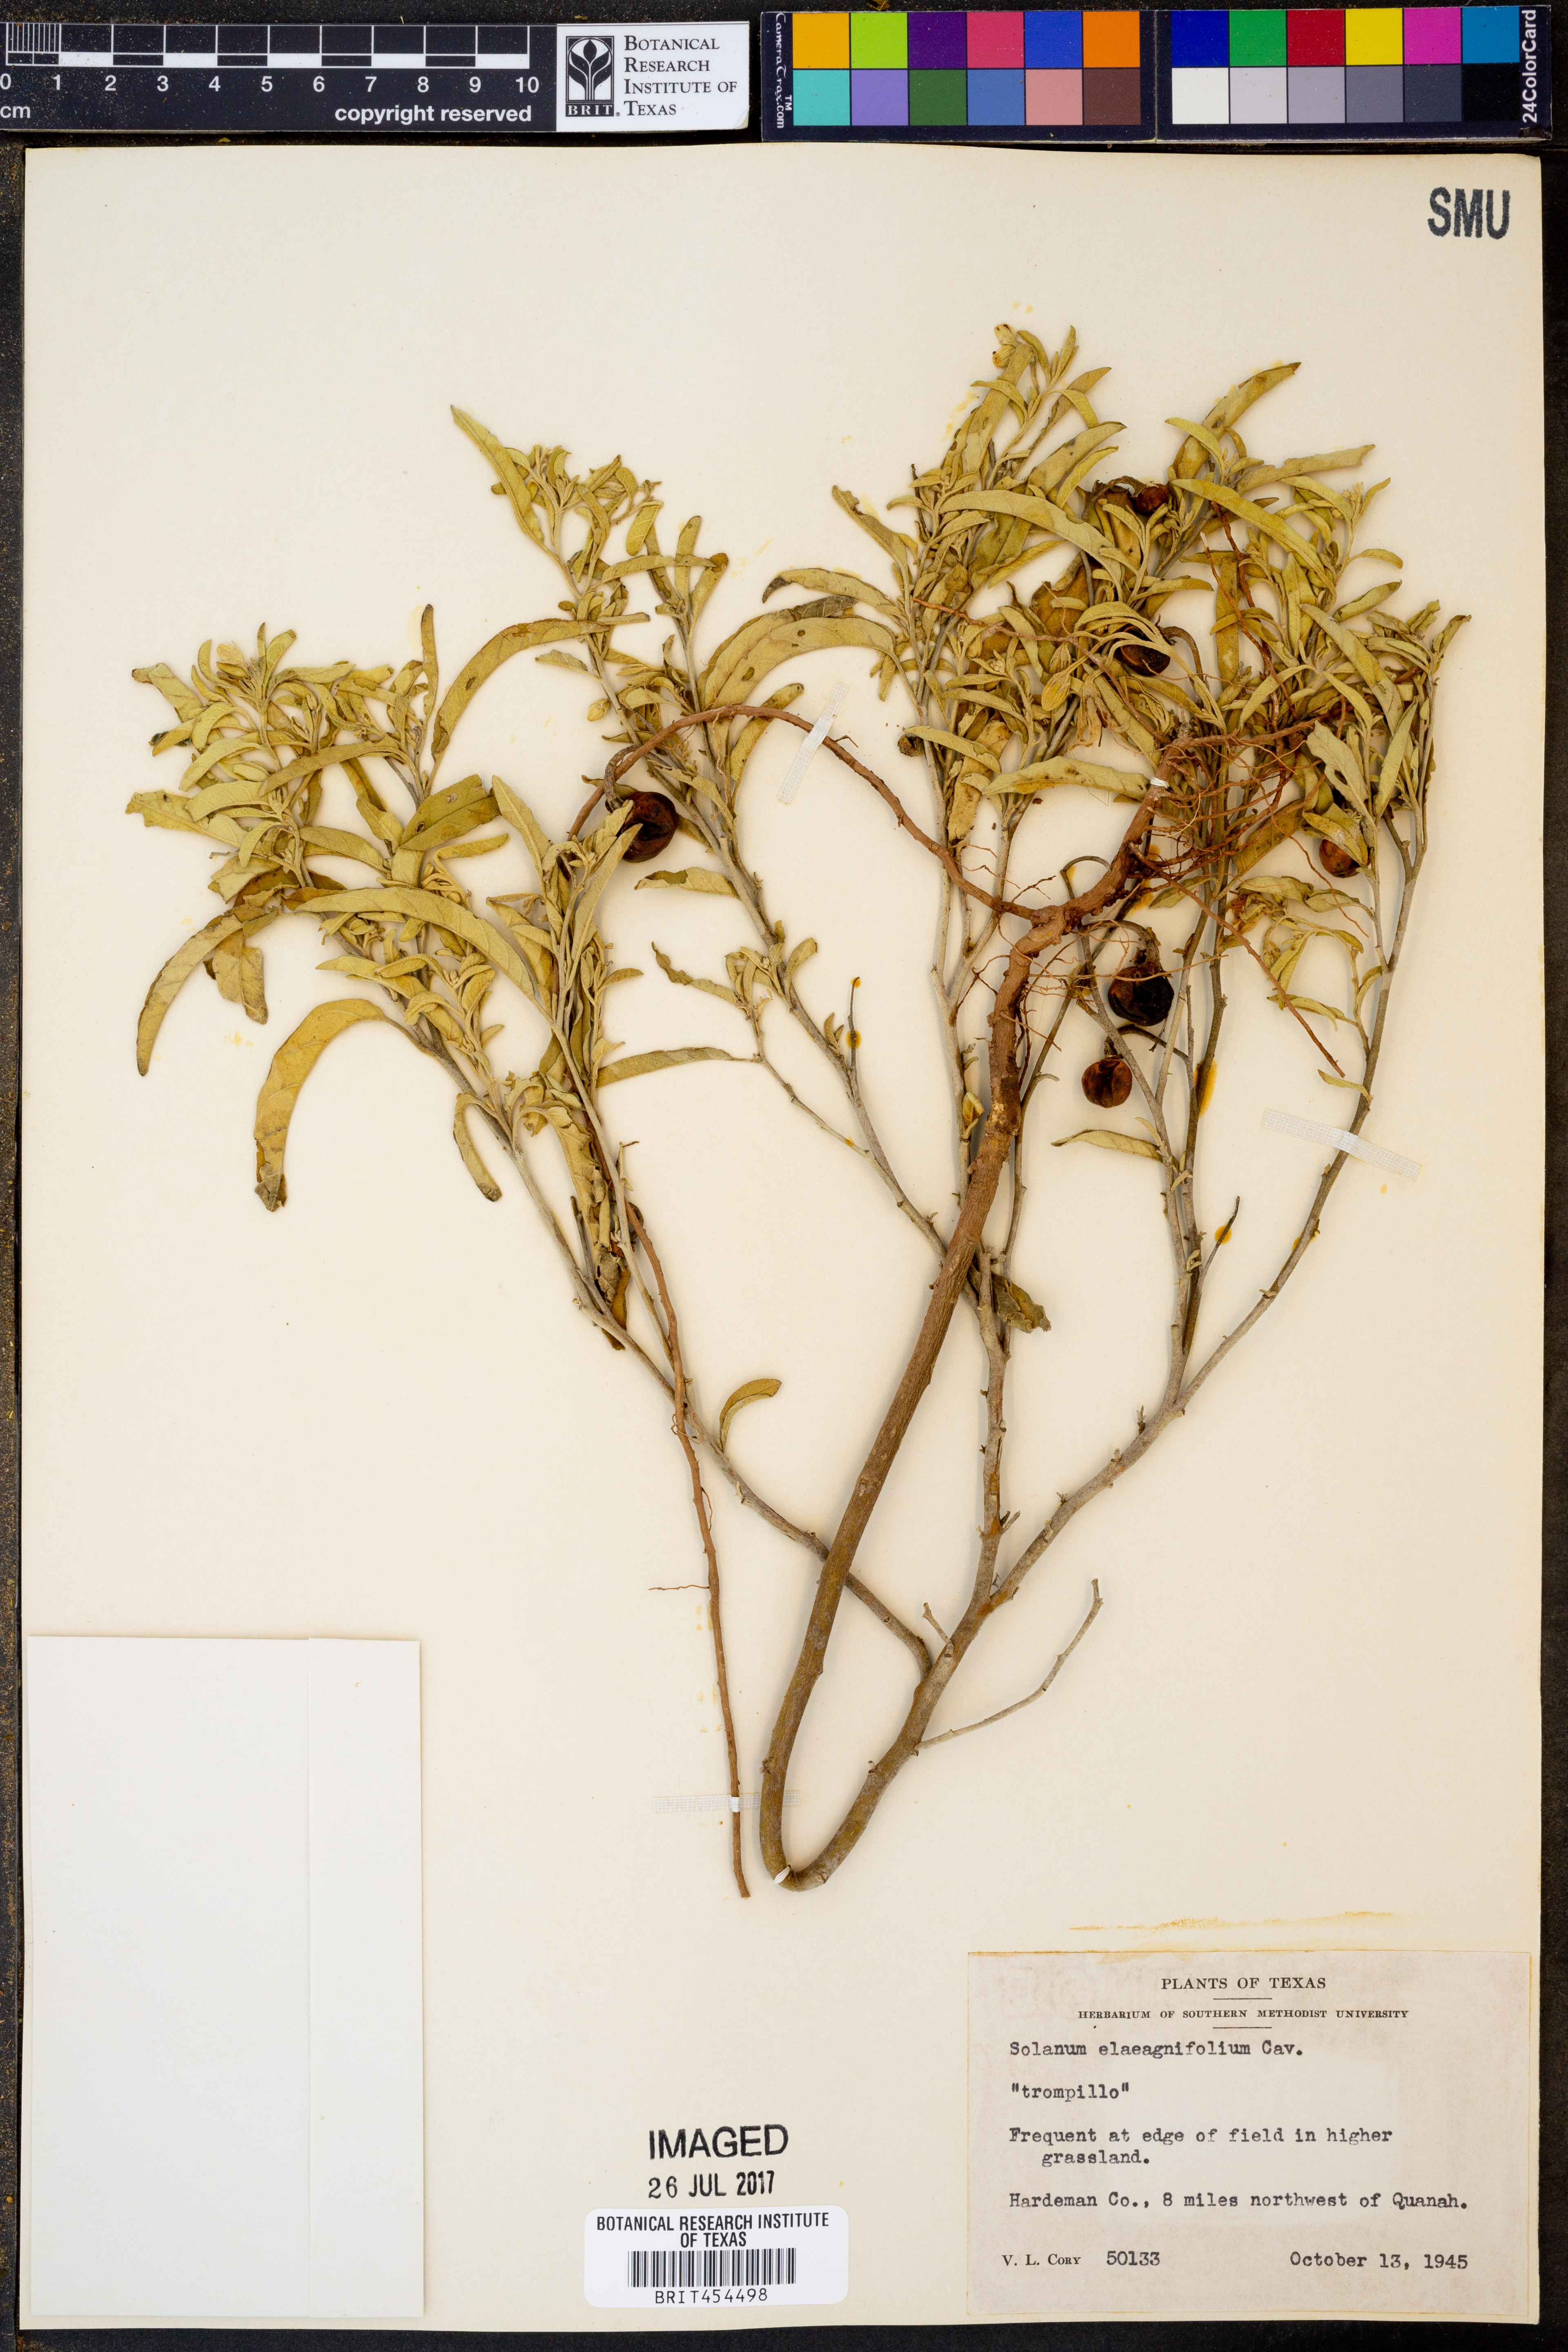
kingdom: Plantae
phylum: Tracheophyta
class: Magnoliopsida
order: Solanales
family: Solanaceae
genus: Solanum
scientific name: Solanum elaeagnifolium
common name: Silverleaf nightshade
